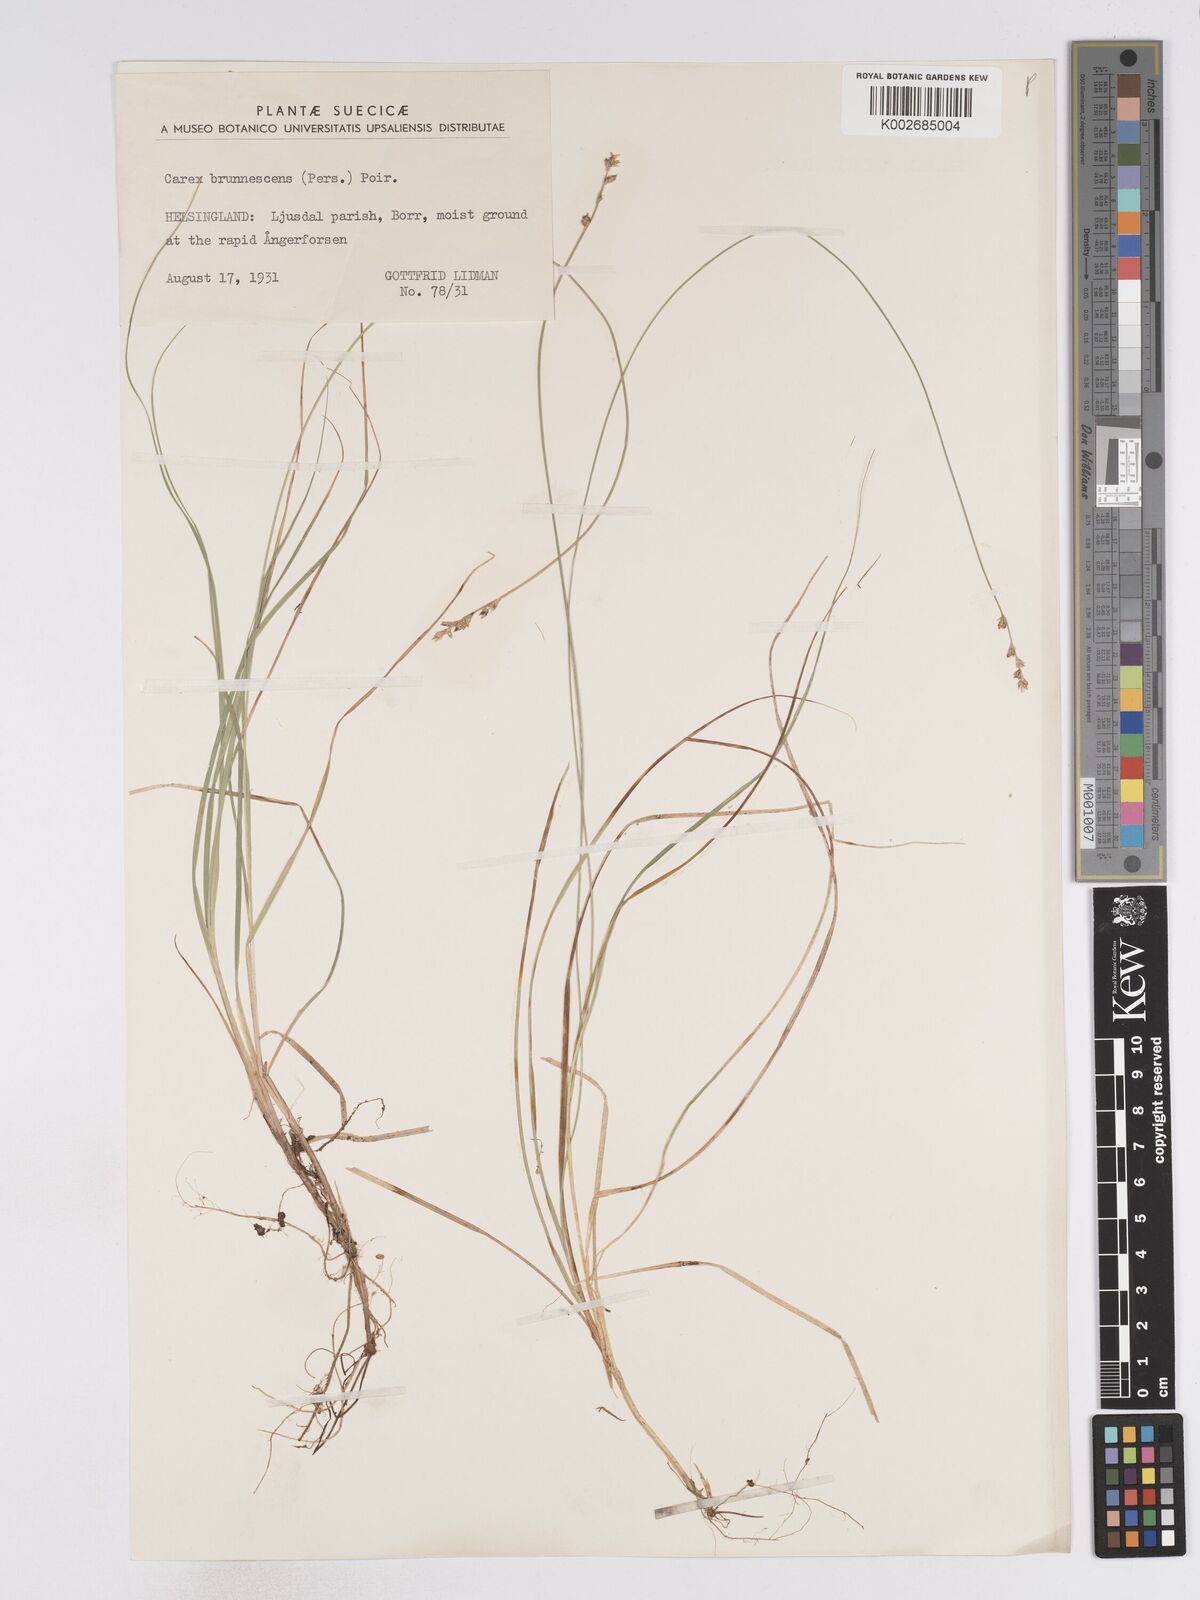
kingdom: Plantae
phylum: Tracheophyta
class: Liliopsida
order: Poales
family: Cyperaceae
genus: Carex
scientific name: Carex brunnescens
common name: Brown sedge
